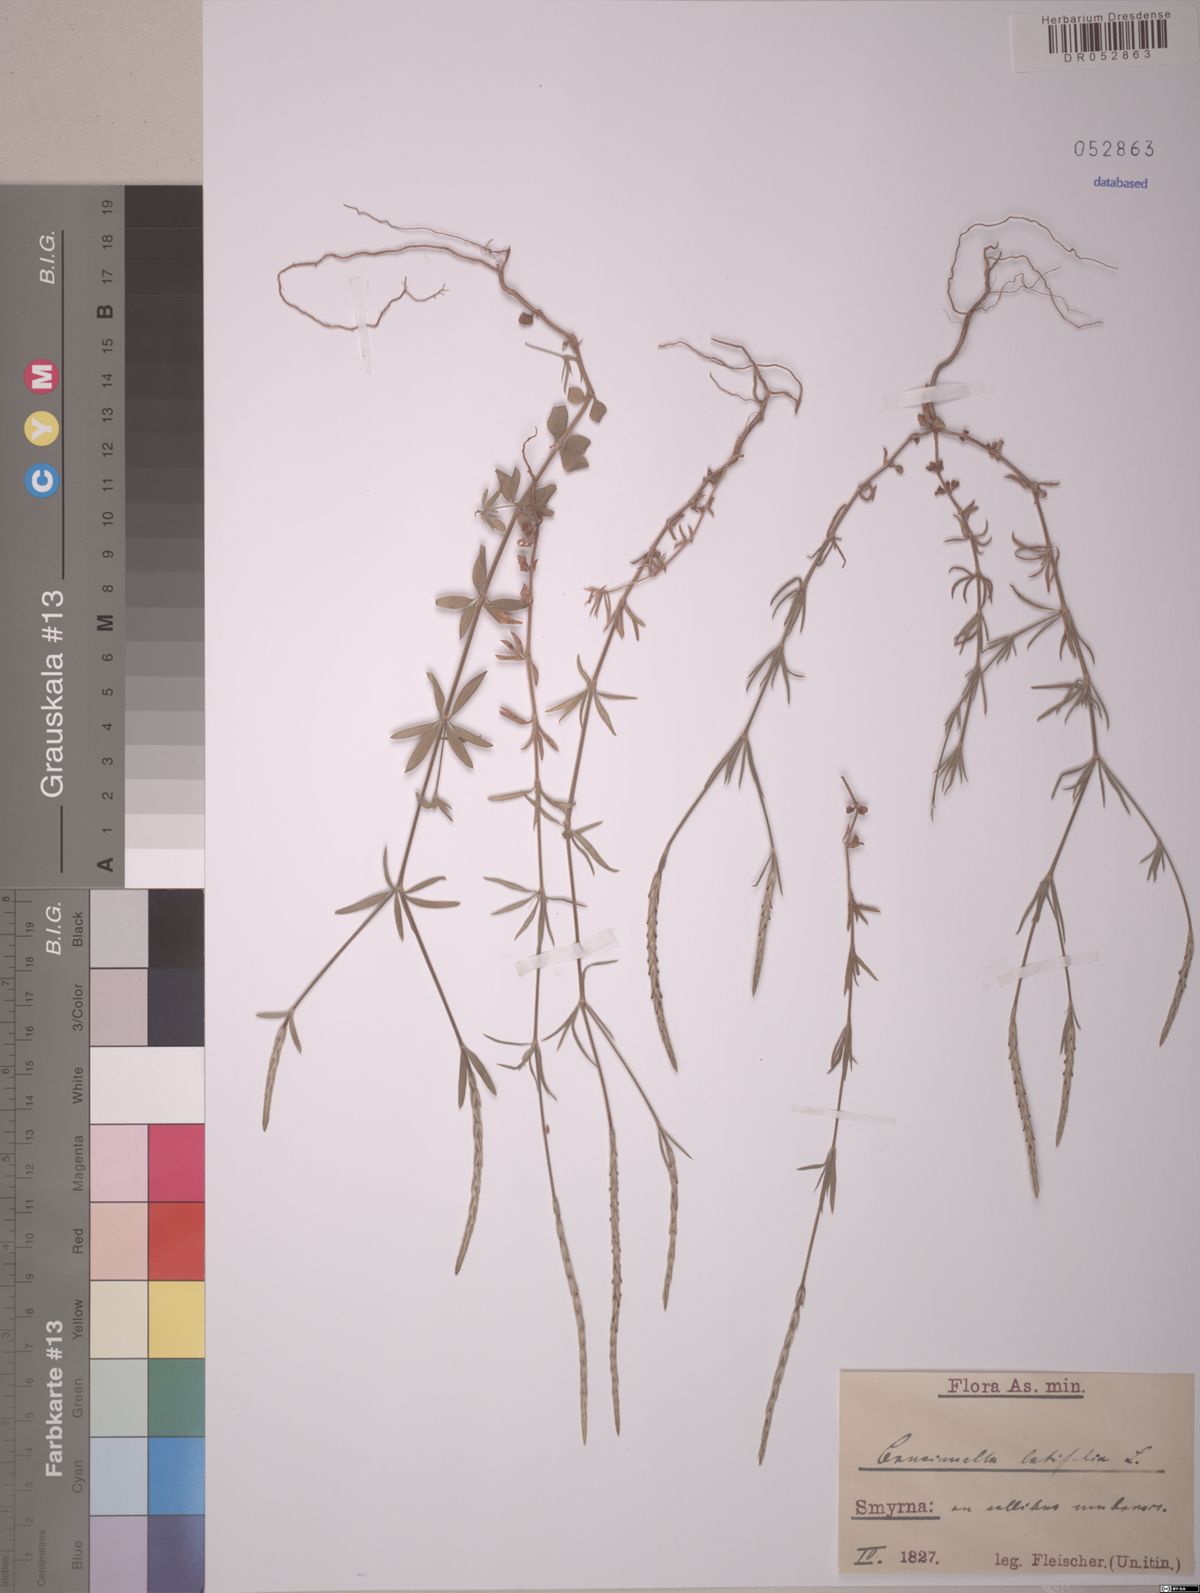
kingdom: Plantae
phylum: Tracheophyta
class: Magnoliopsida
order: Gentianales
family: Rubiaceae
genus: Crucianella
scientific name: Crucianella latifolia
